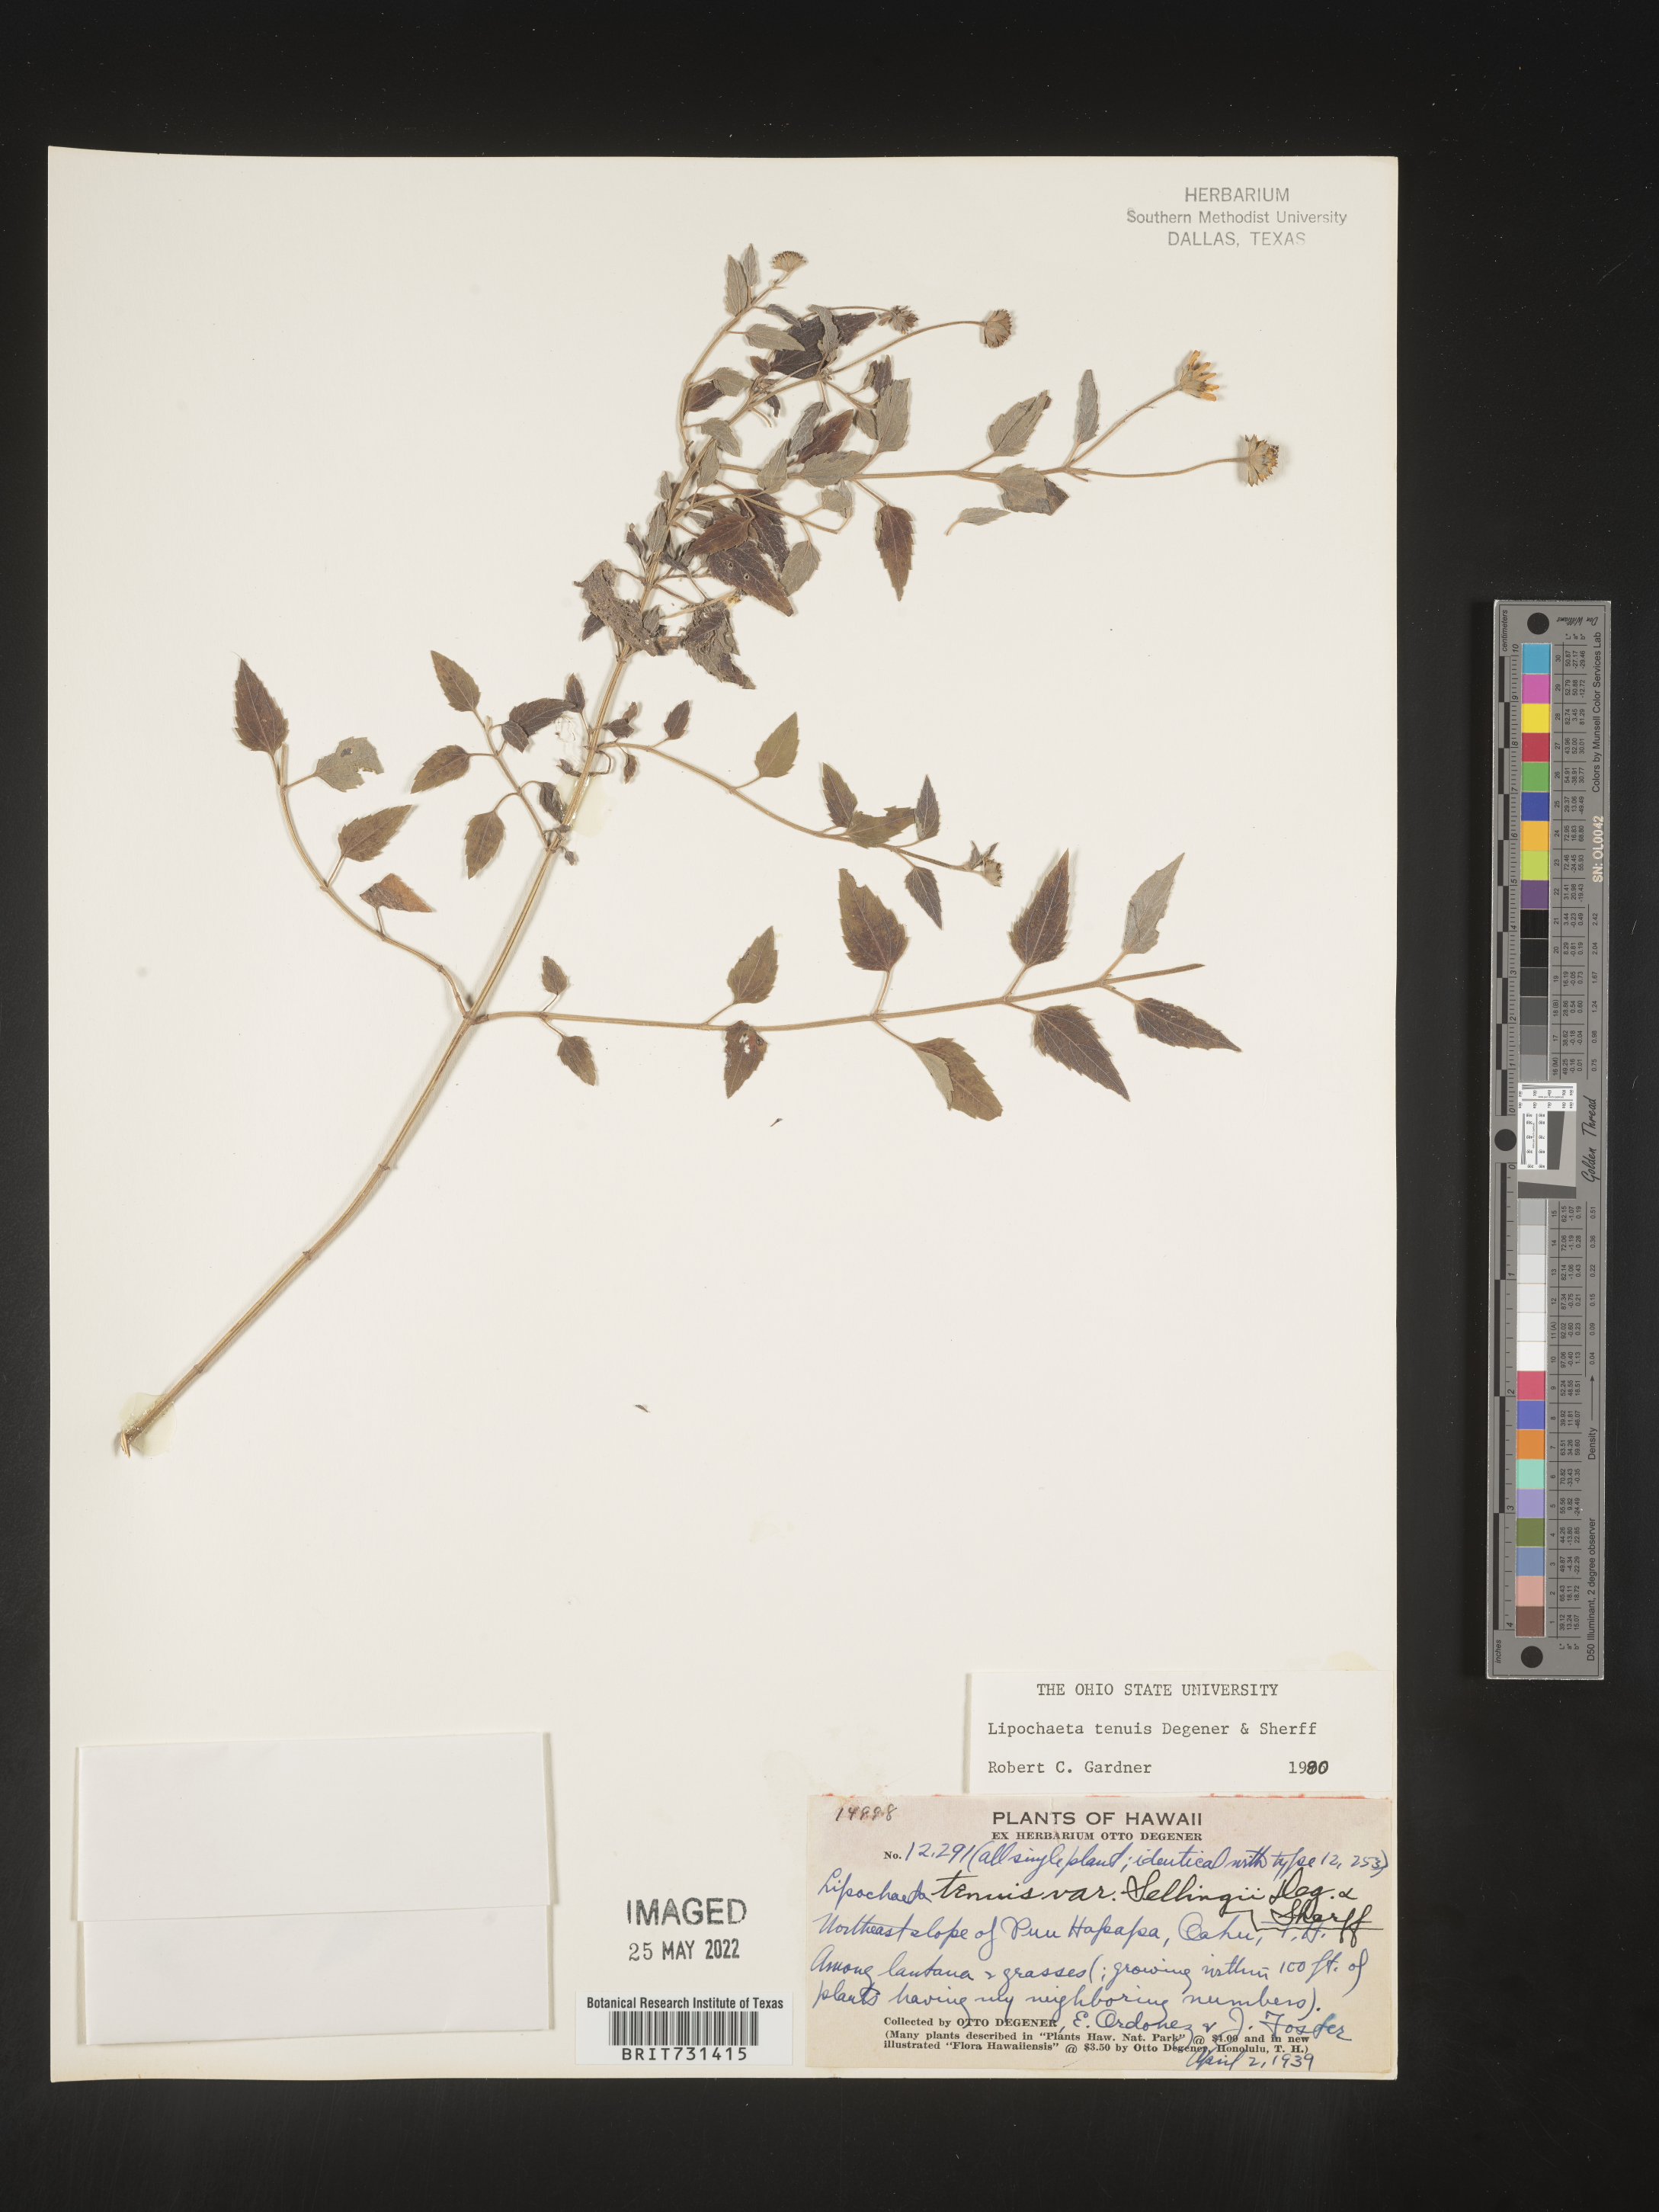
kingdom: Plantae
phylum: Tracheophyta
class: Magnoliopsida
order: Asterales
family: Asteraceae
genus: Lipochaeta
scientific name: Lipochaeta
